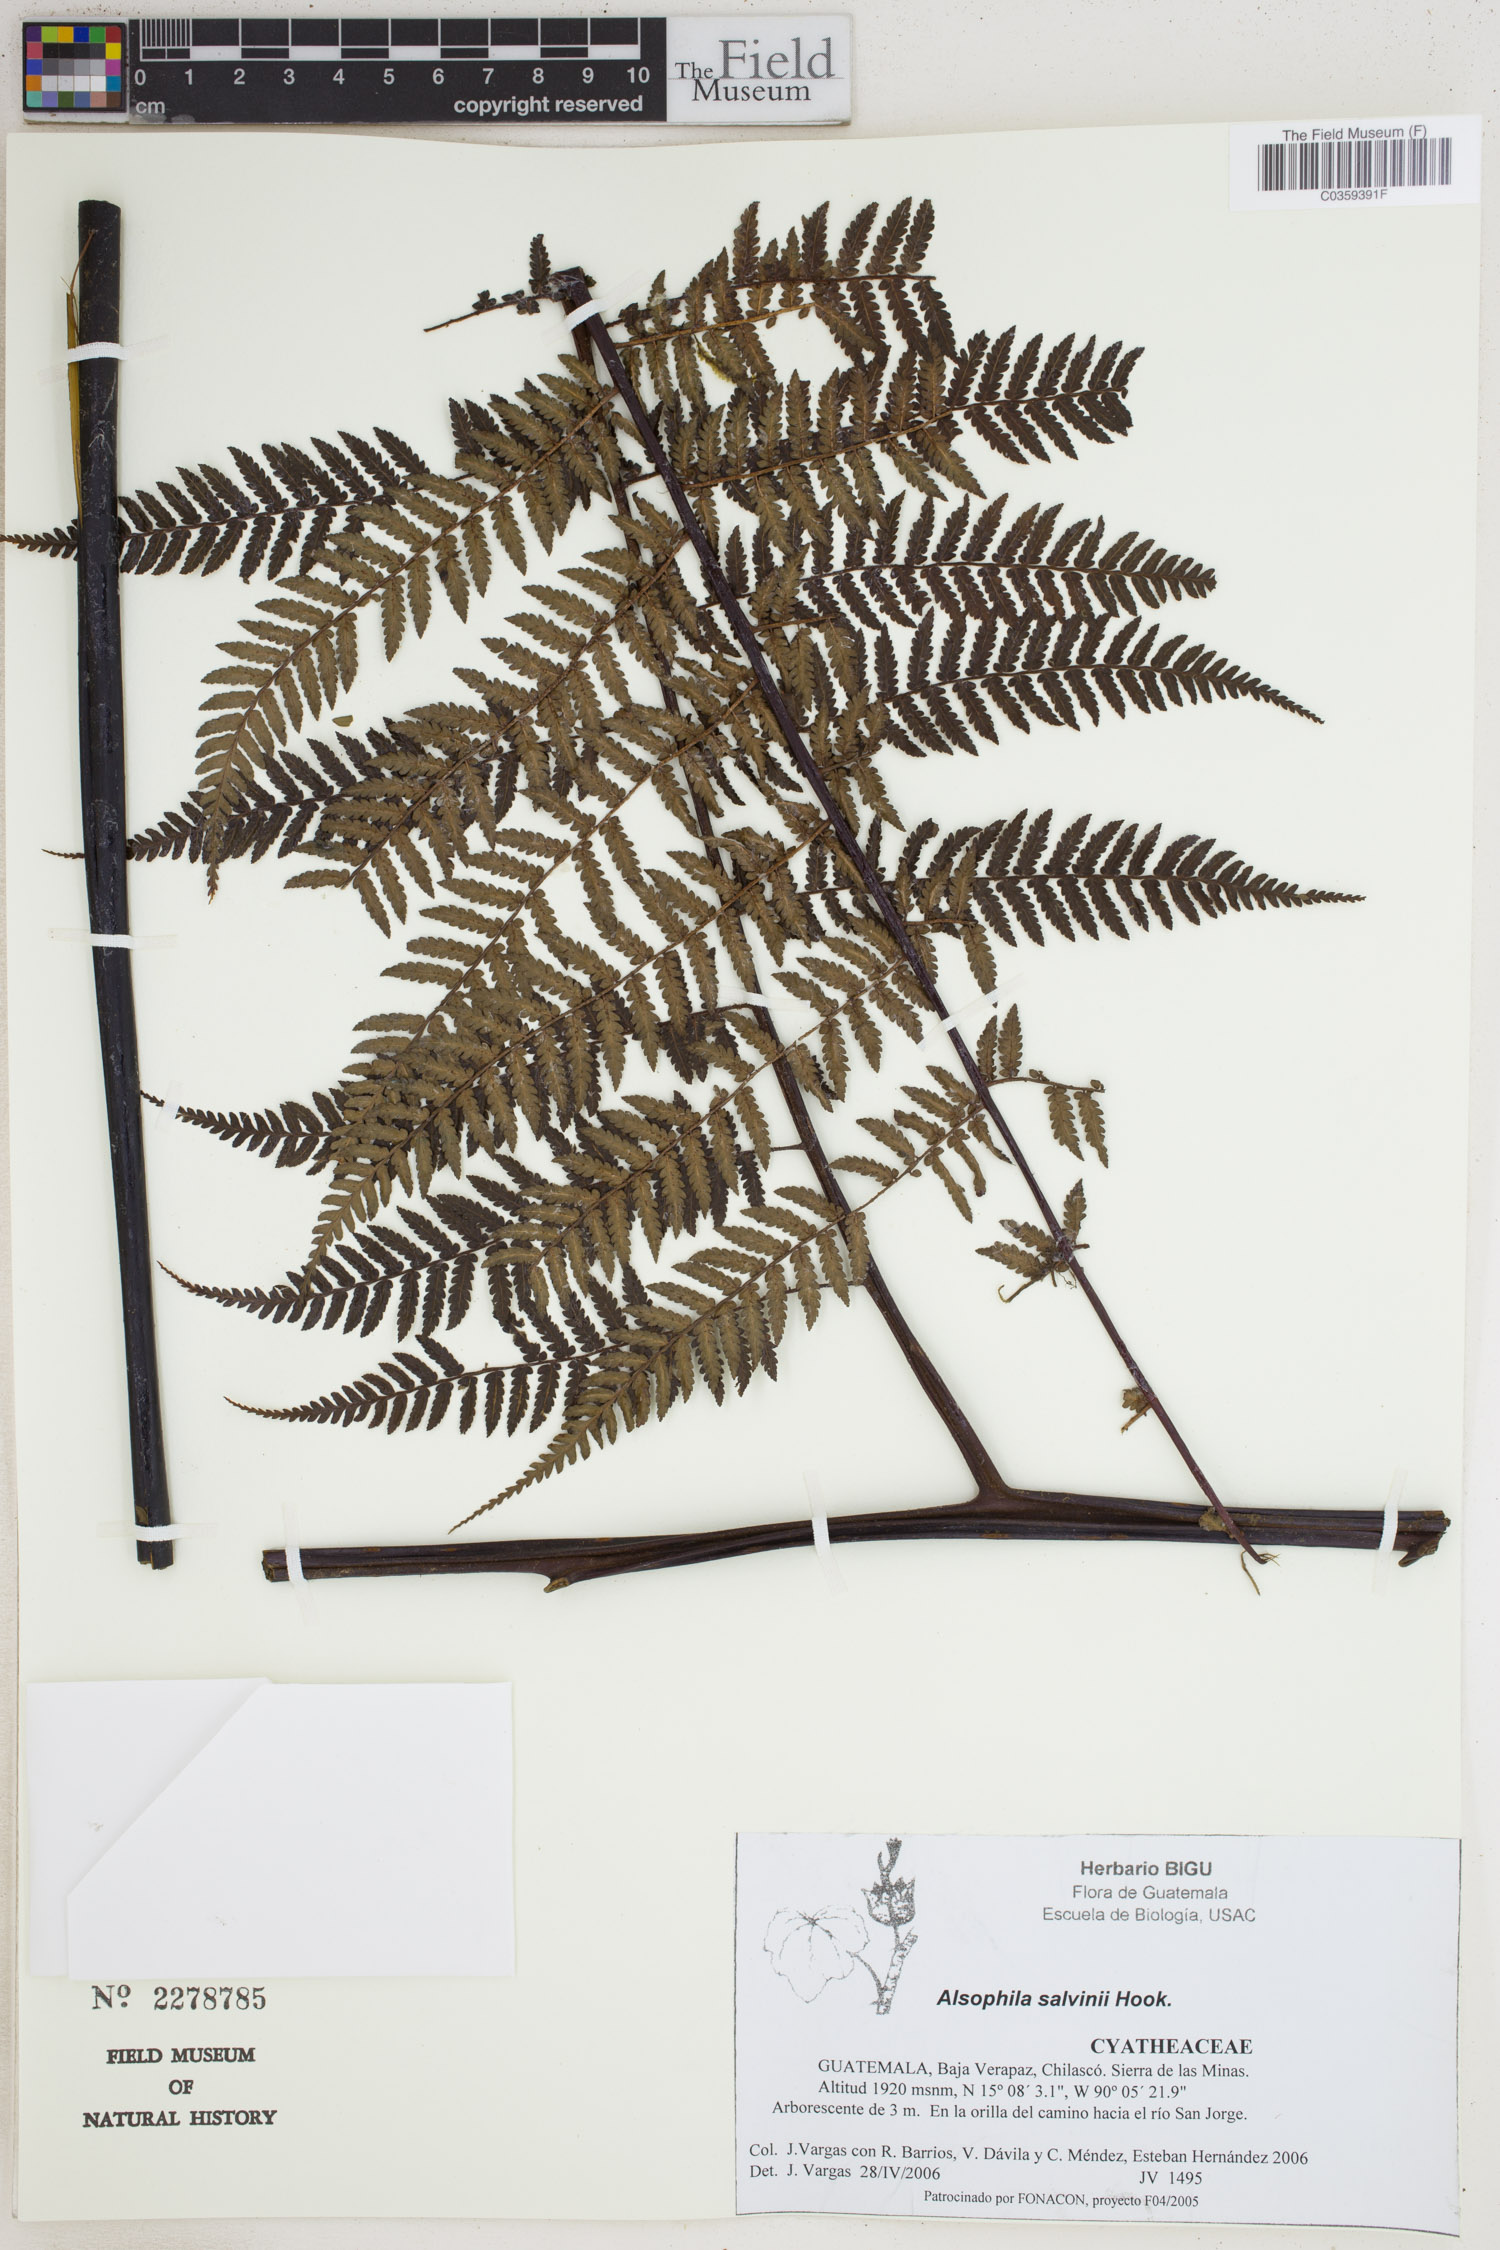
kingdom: Plantae
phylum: Tracheophyta
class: Polypodiopsida
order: Cyatheales
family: Cyatheaceae
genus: Gymnosphaera
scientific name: Gymnosphaera salvinii
